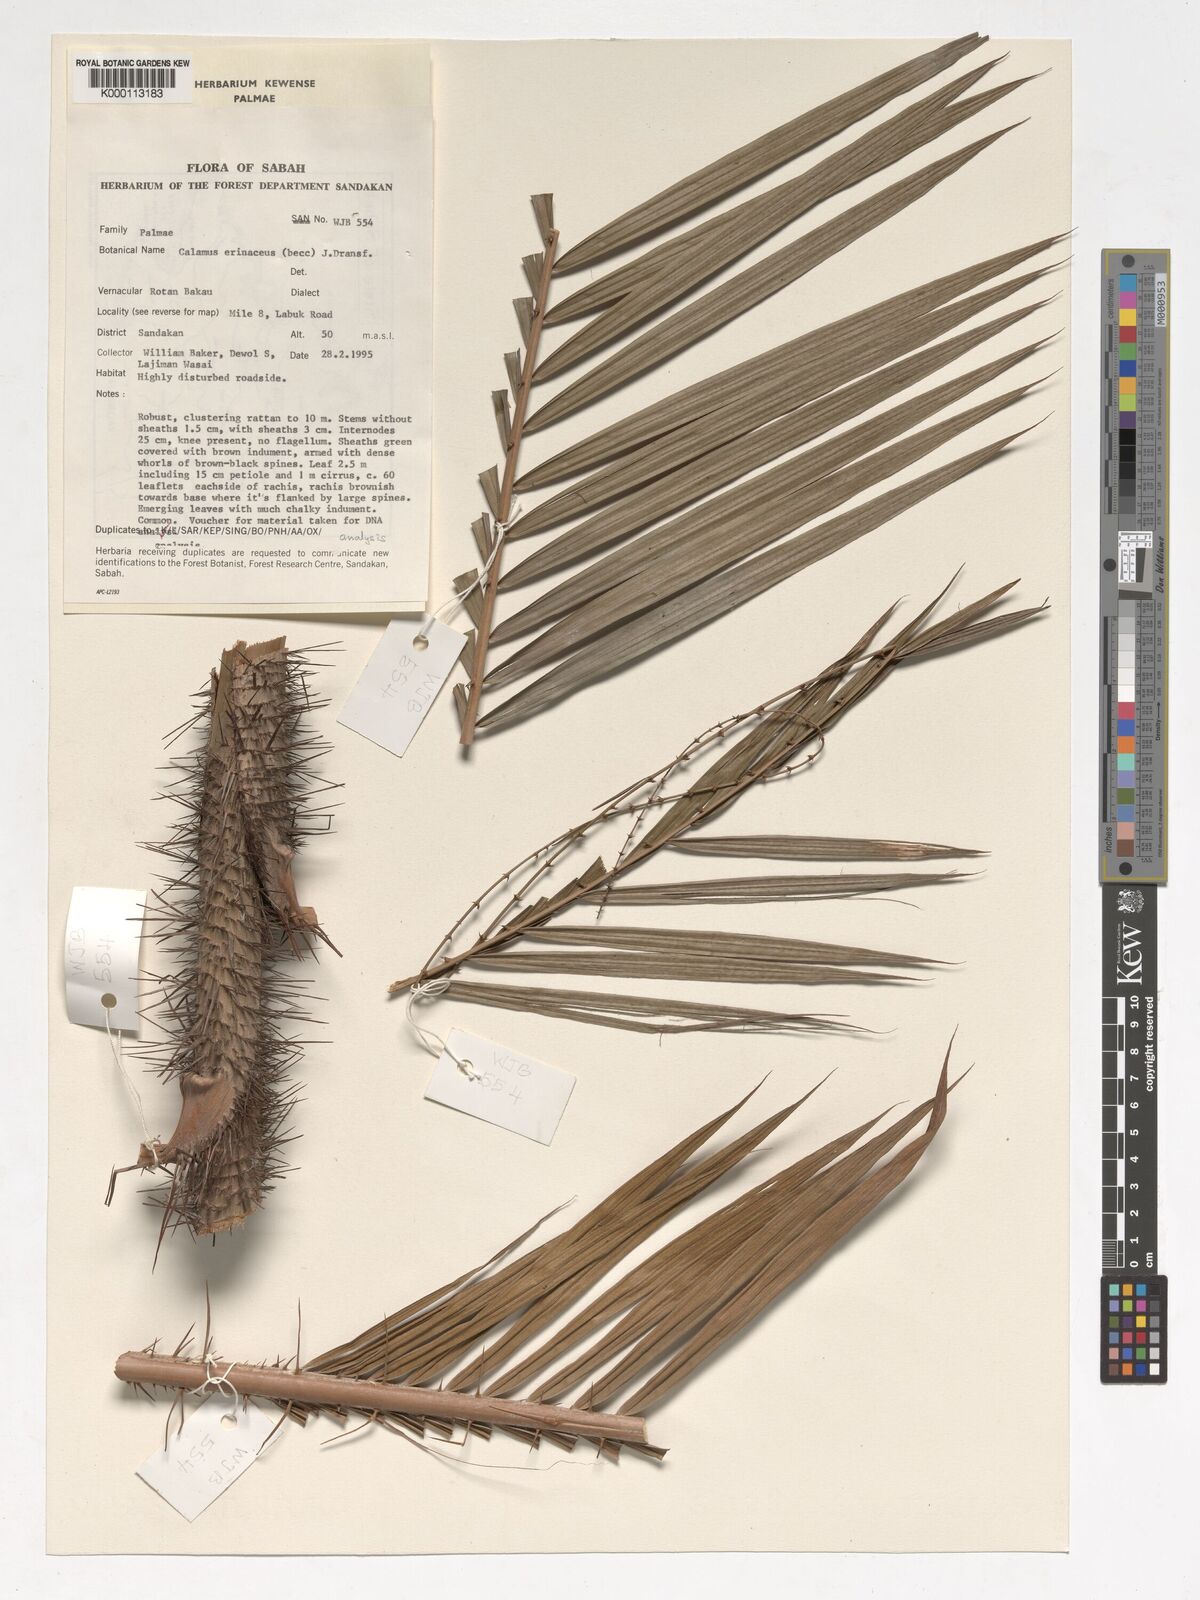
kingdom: Plantae
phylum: Tracheophyta
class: Liliopsida
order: Arecales
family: Arecaceae
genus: Calamus
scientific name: Calamus
